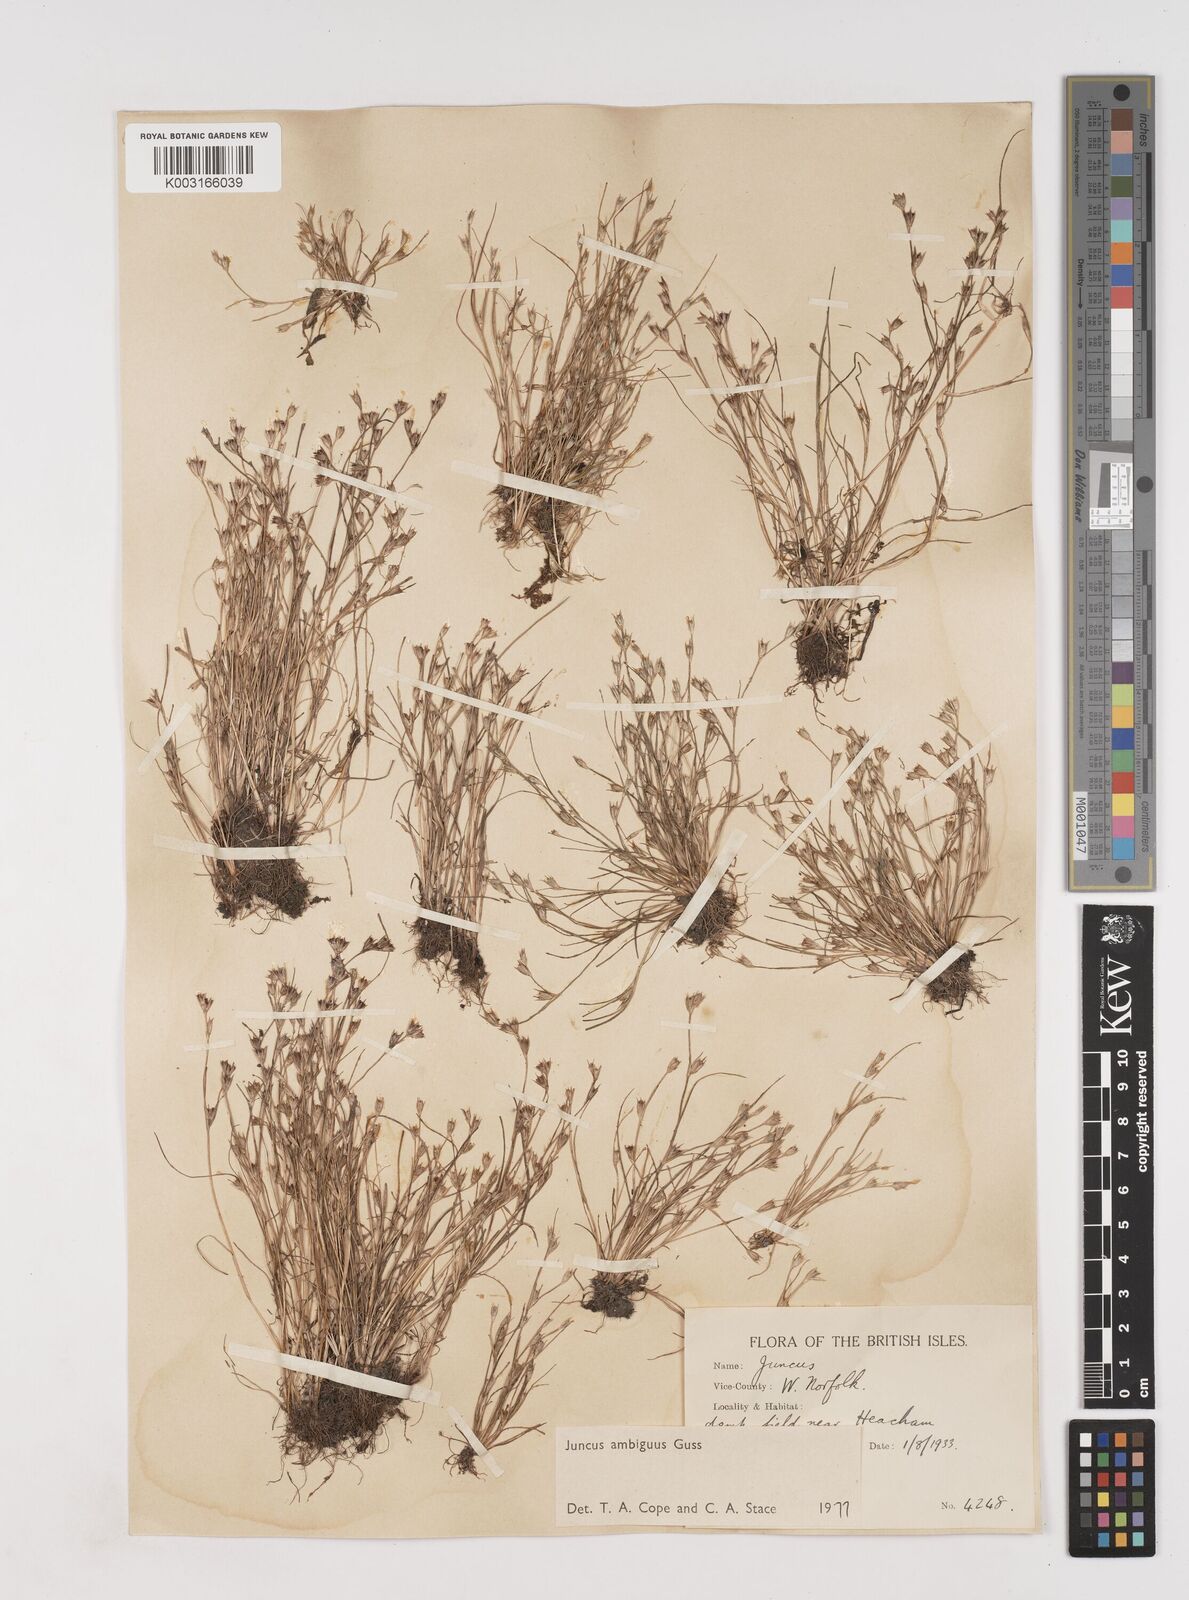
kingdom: Plantae
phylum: Tracheophyta
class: Liliopsida
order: Poales
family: Juncaceae
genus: Juncus
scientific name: Juncus hybridus
